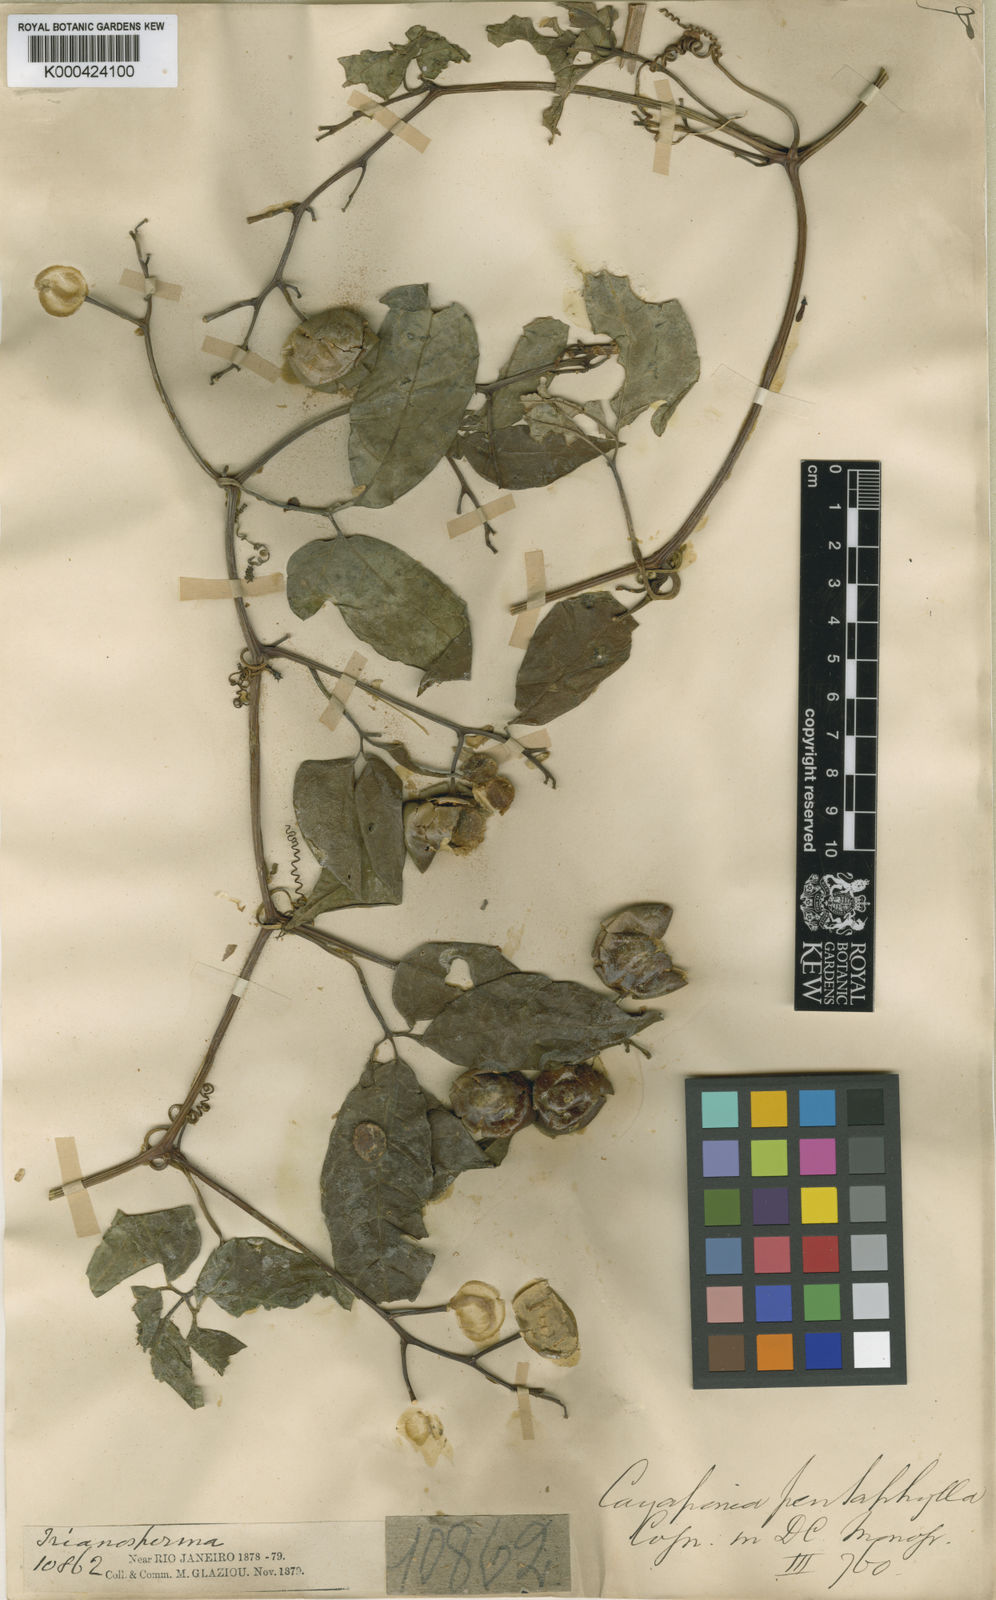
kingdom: Plantae
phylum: Tracheophyta
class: Magnoliopsida
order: Cucurbitales
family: Cucurbitaceae
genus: Cayaponia
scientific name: Cayaponia trifoliolata
